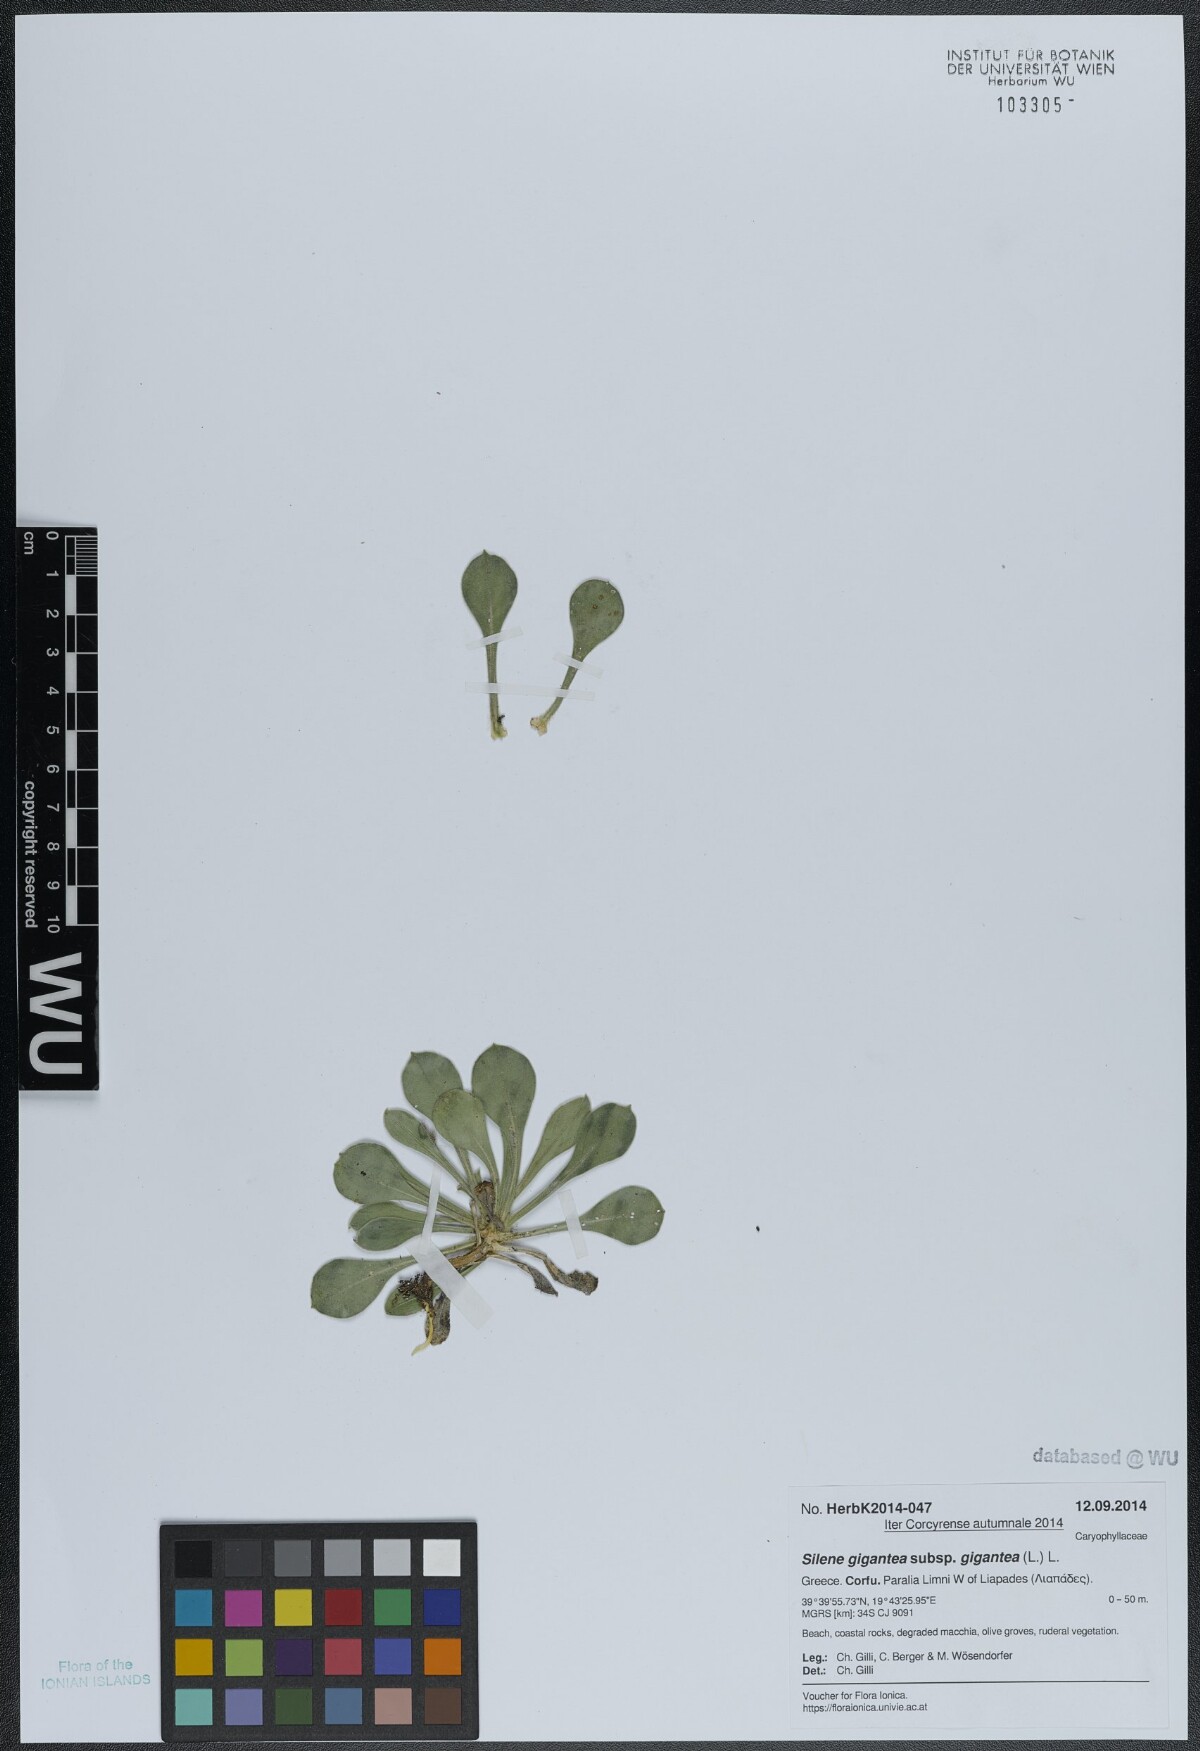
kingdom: Plantae
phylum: Tracheophyta
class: Magnoliopsida
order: Caryophyllales
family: Caryophyllaceae
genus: Silene
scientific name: Silene gigantea
